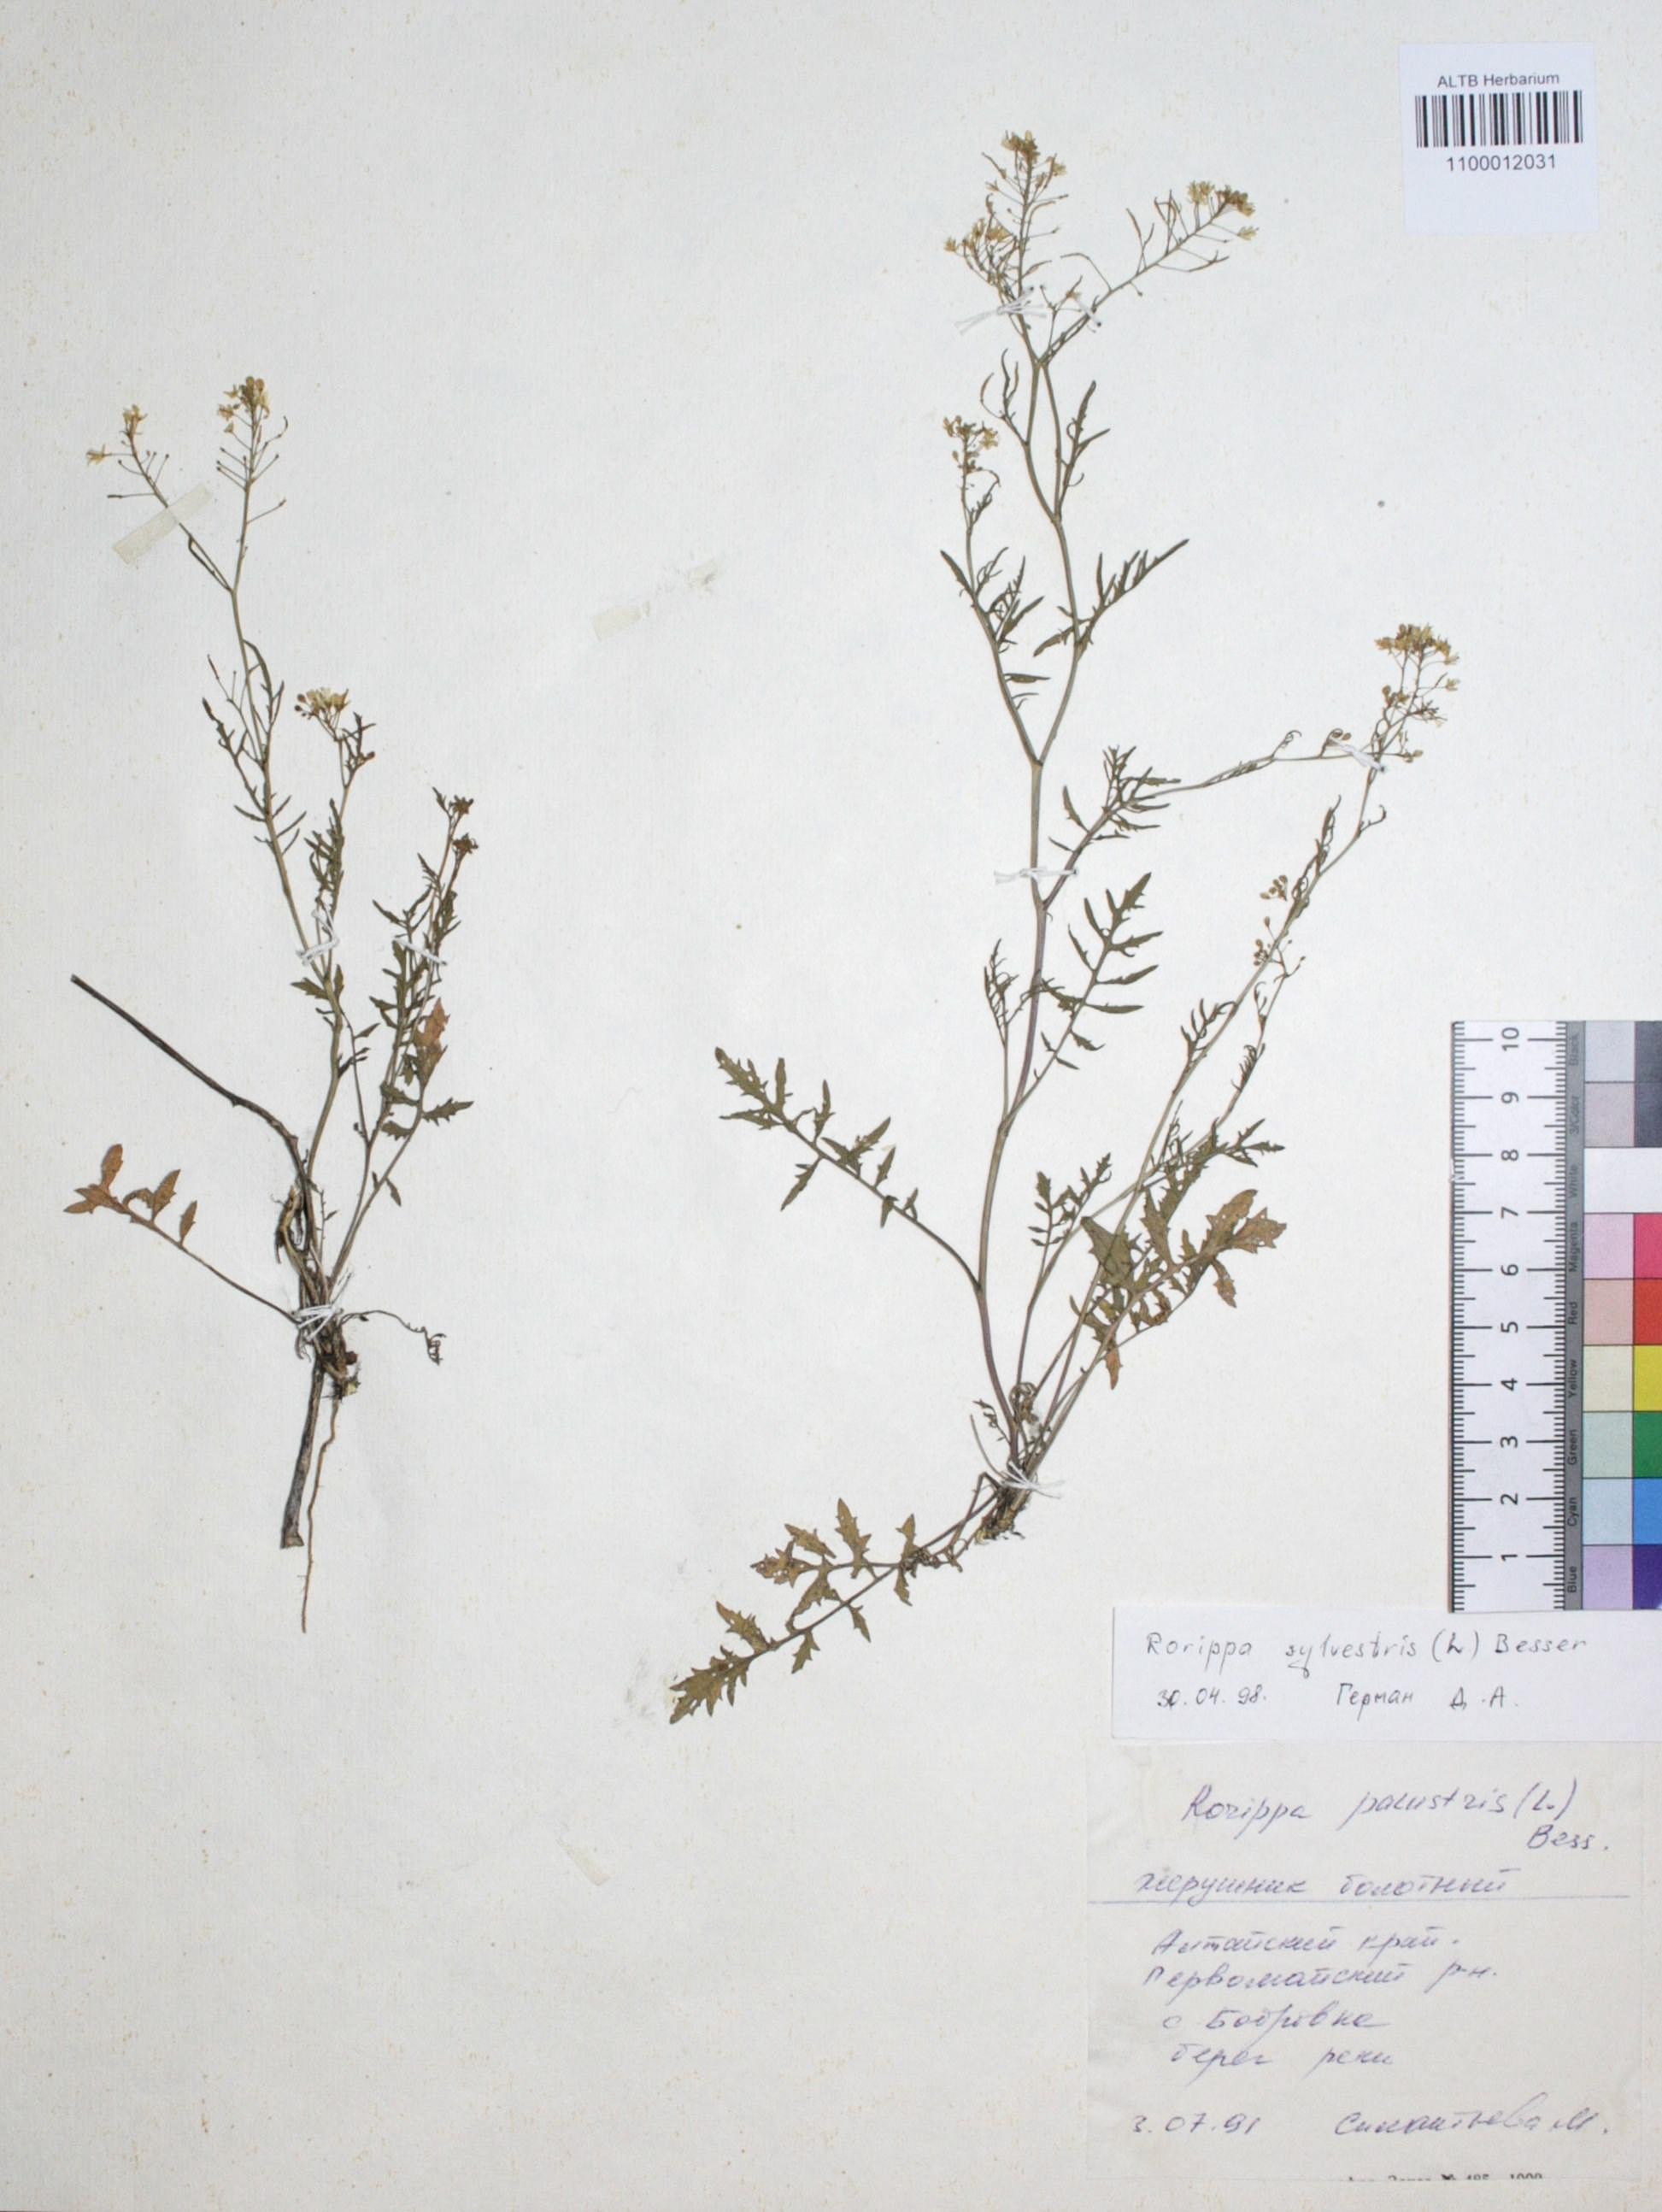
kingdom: Plantae
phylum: Tracheophyta
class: Magnoliopsida
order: Brassicales
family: Brassicaceae
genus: Rorippa
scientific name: Rorippa sylvestris
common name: Creeping yellowcress
